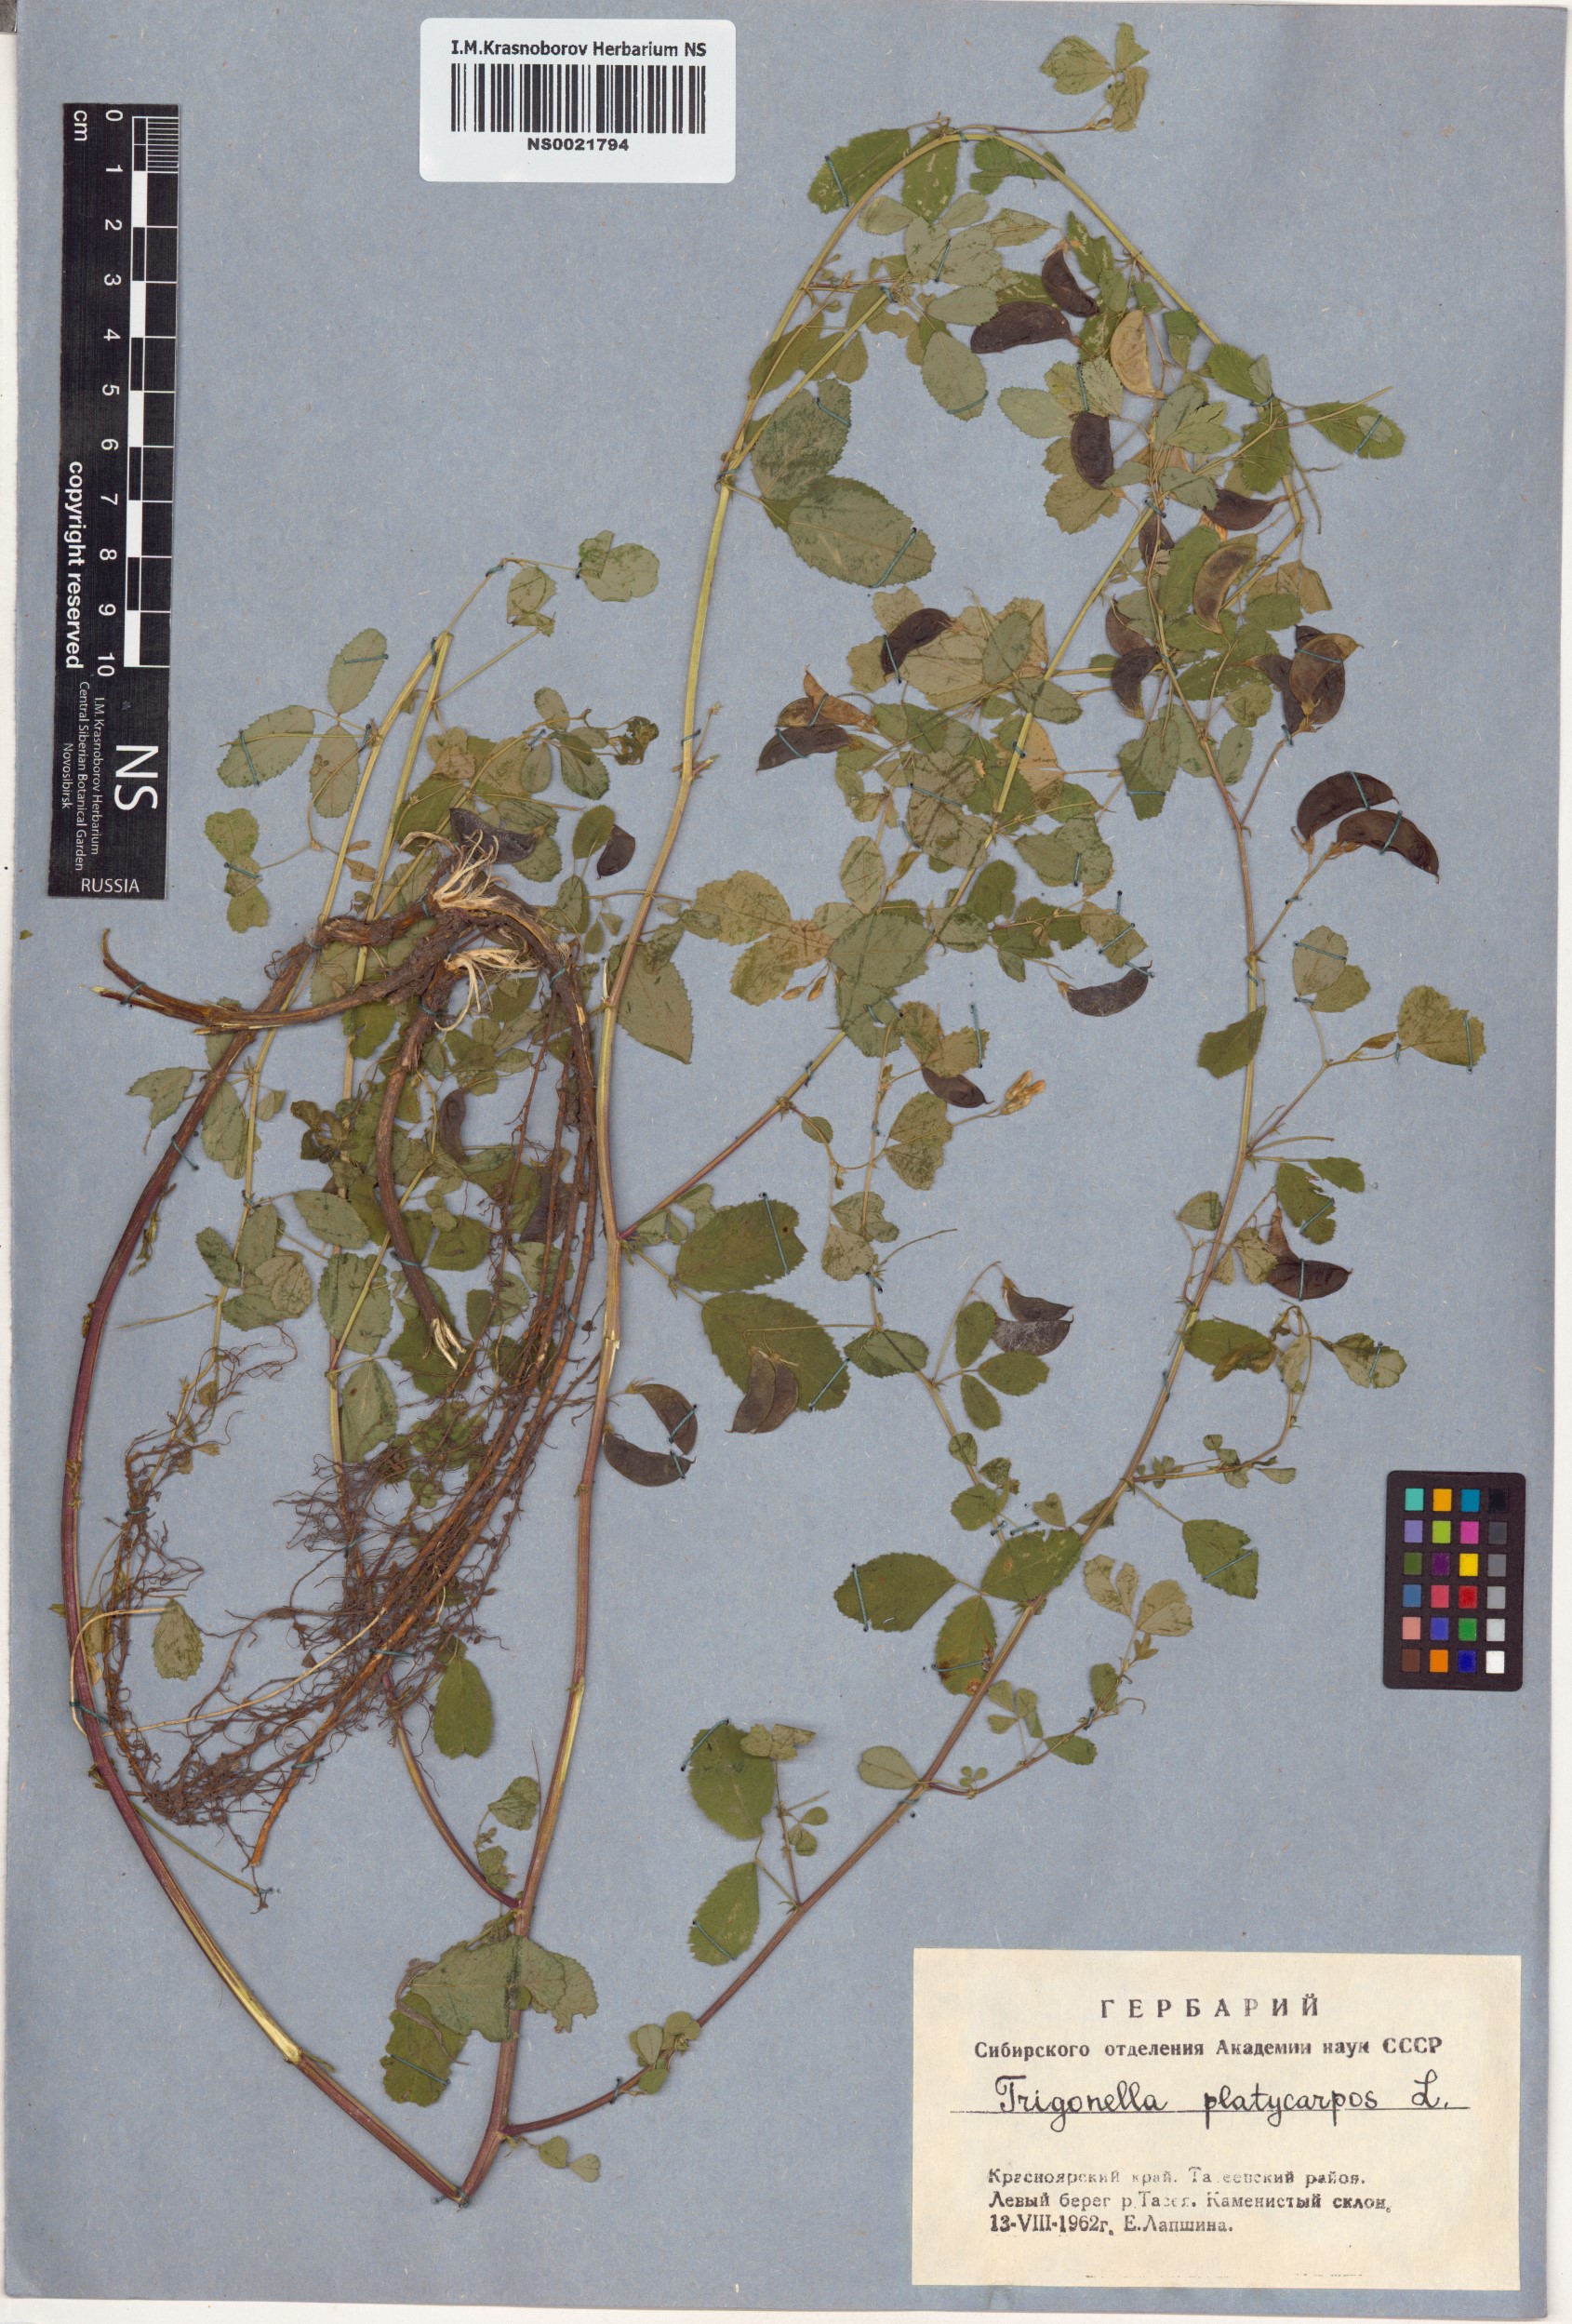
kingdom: Plantae
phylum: Tracheophyta
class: Magnoliopsida
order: Fabales
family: Fabaceae
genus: Medicago
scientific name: Medicago platycarpos
